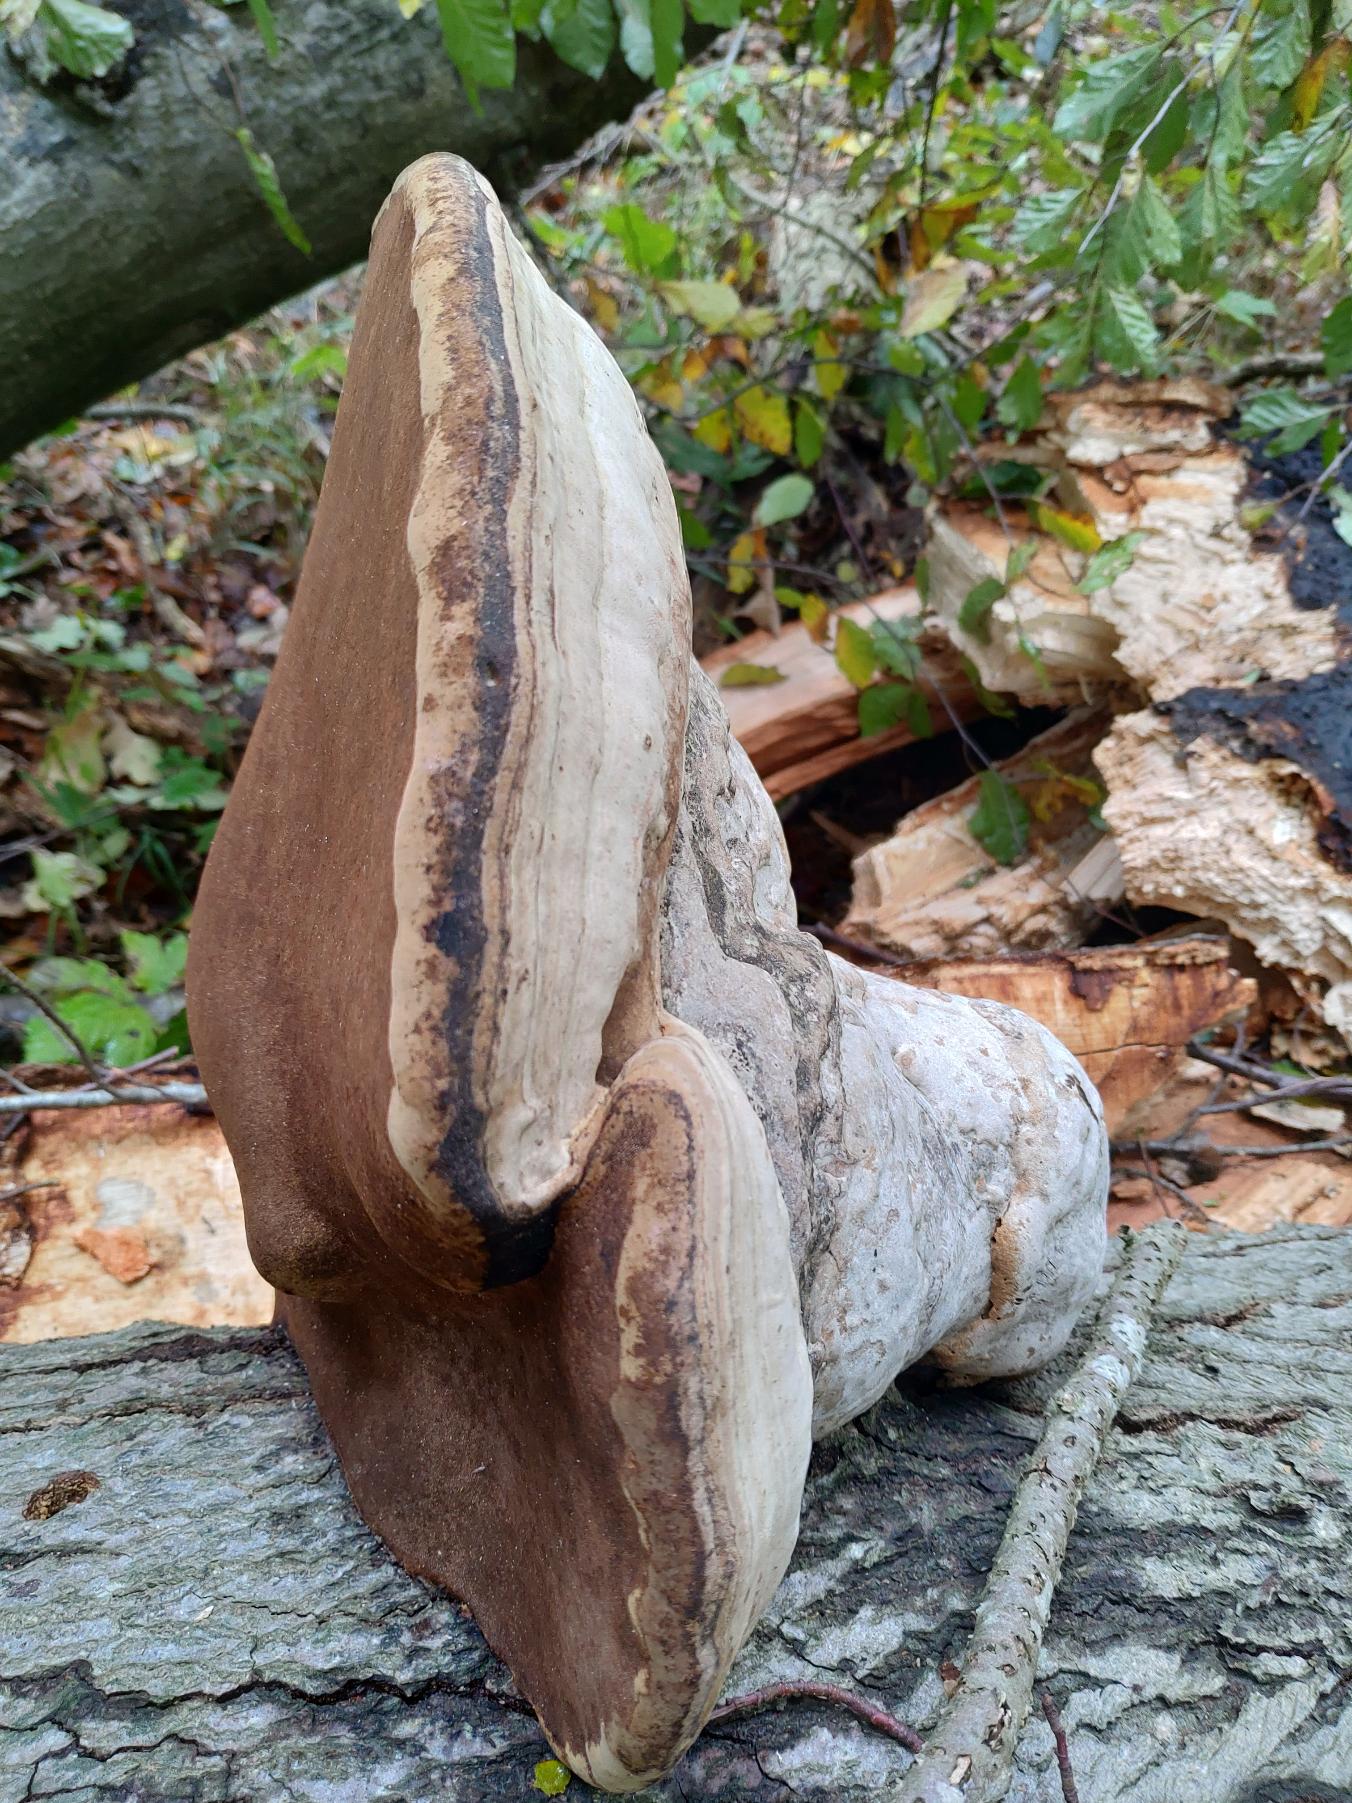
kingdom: Fungi
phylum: Basidiomycota
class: Agaricomycetes
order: Polyporales
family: Polyporaceae
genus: Fomes
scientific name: Fomes fomentarius
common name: Tøndersvamp
